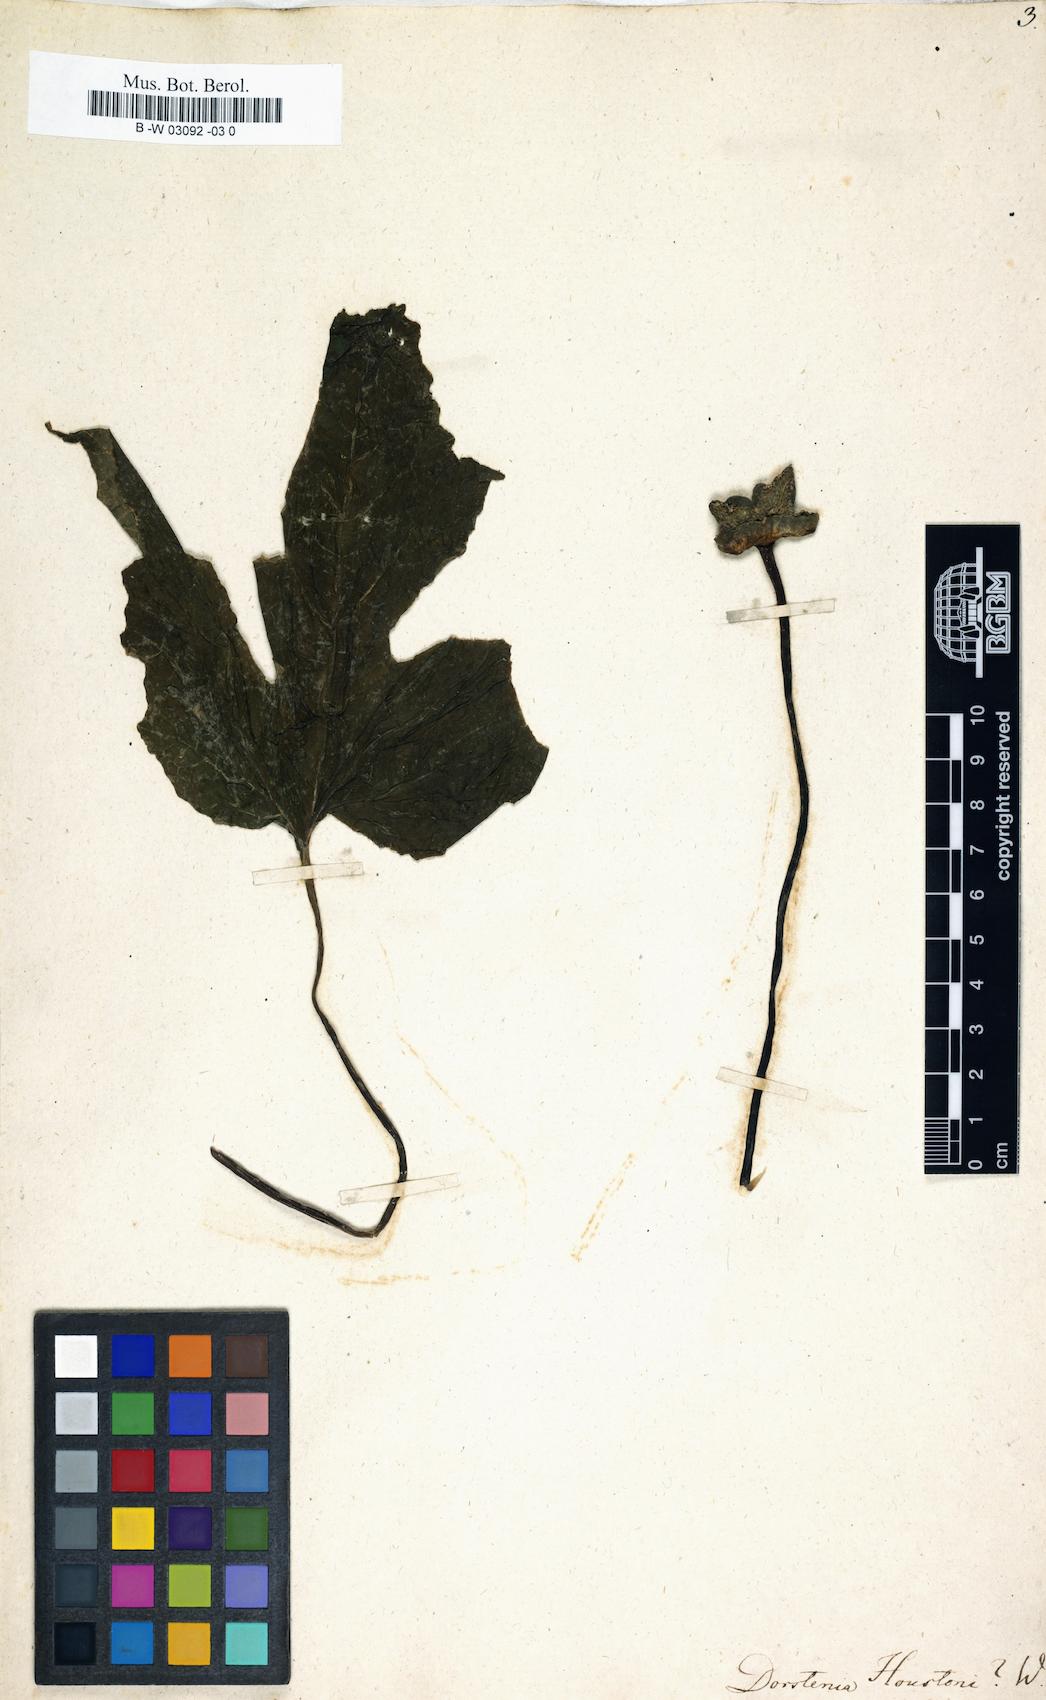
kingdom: Plantae
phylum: Tracheophyta
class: Magnoliopsida
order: Rosales
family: Moraceae
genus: Dorstenia
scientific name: Dorstenia contrajerva
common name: Tusilla
